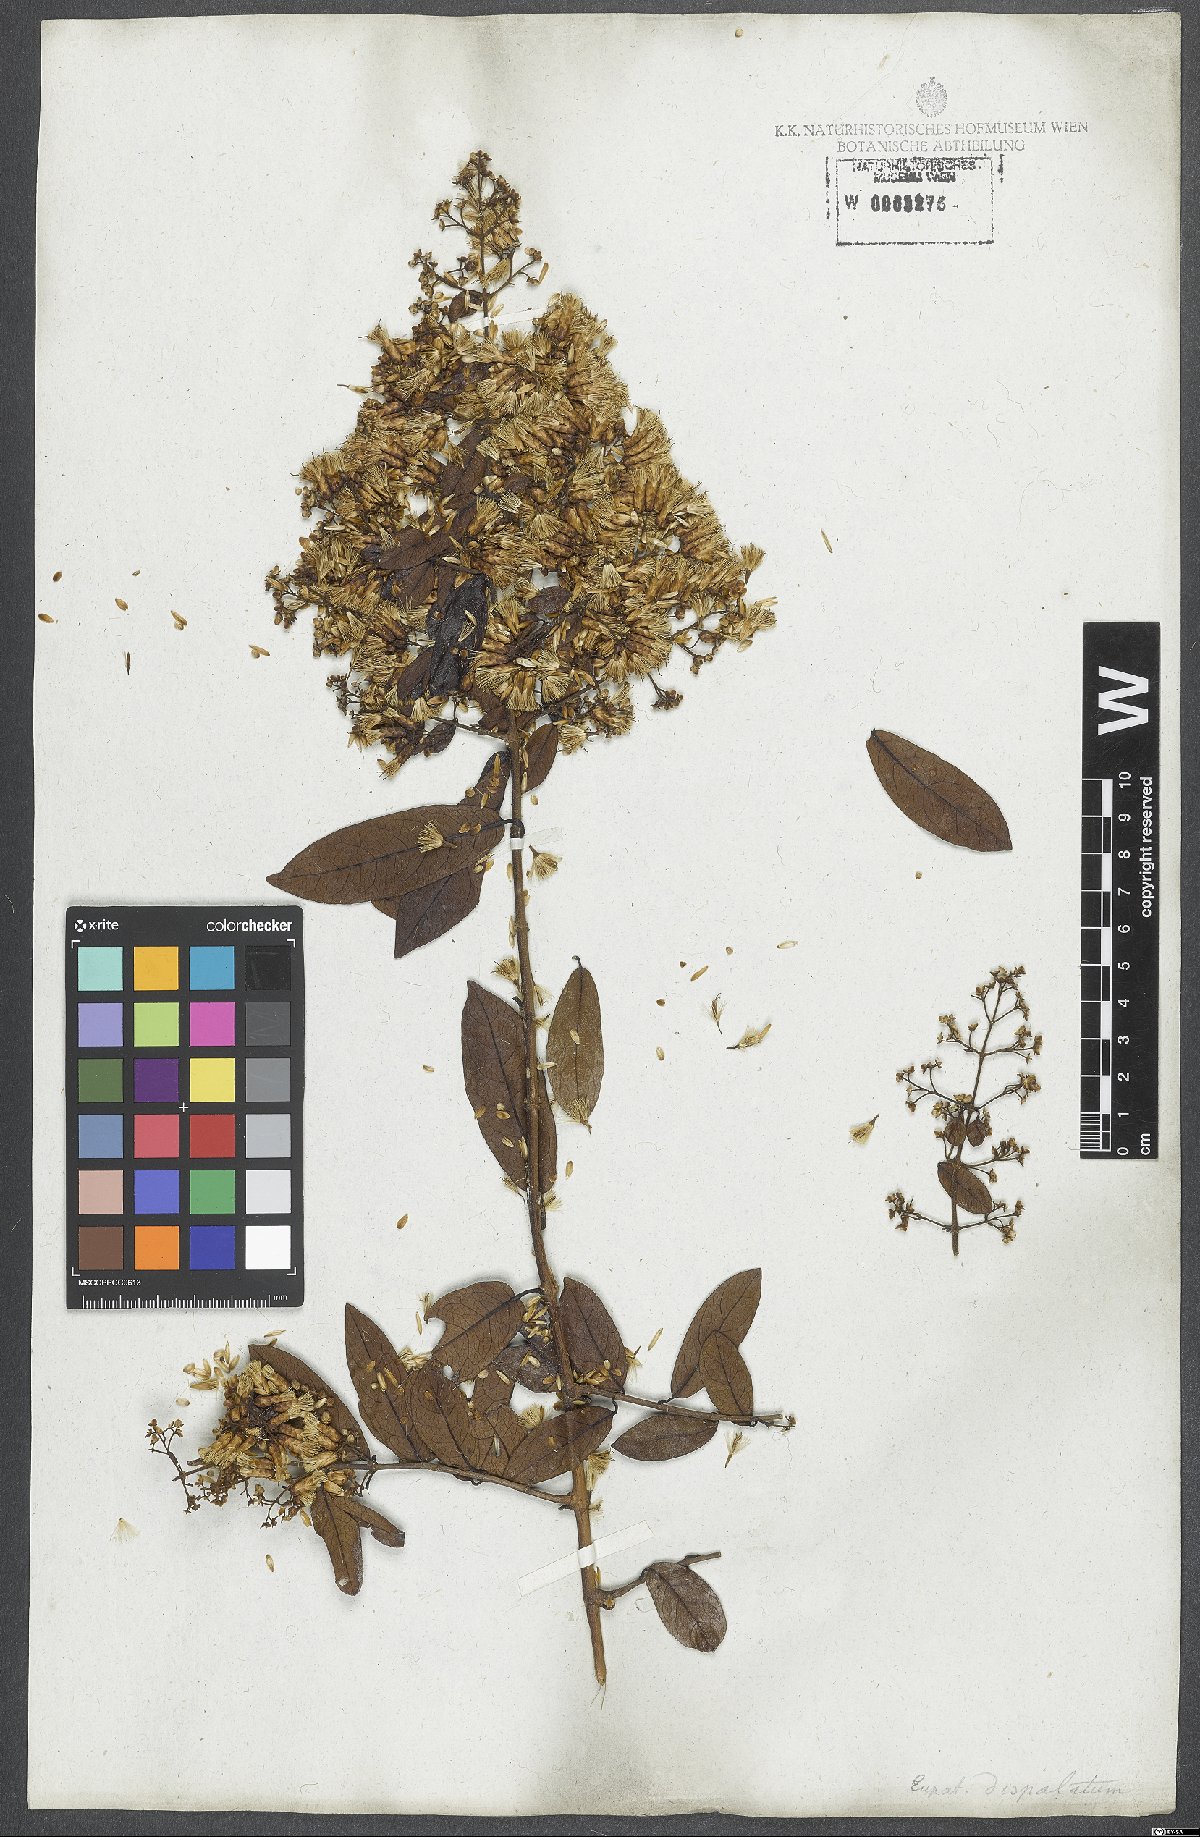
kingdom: Plantae
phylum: Tracheophyta
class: Magnoliopsida
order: Asterales
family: Asteraceae
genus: Steyermarkina
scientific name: Steyermarkina pyrifolia
